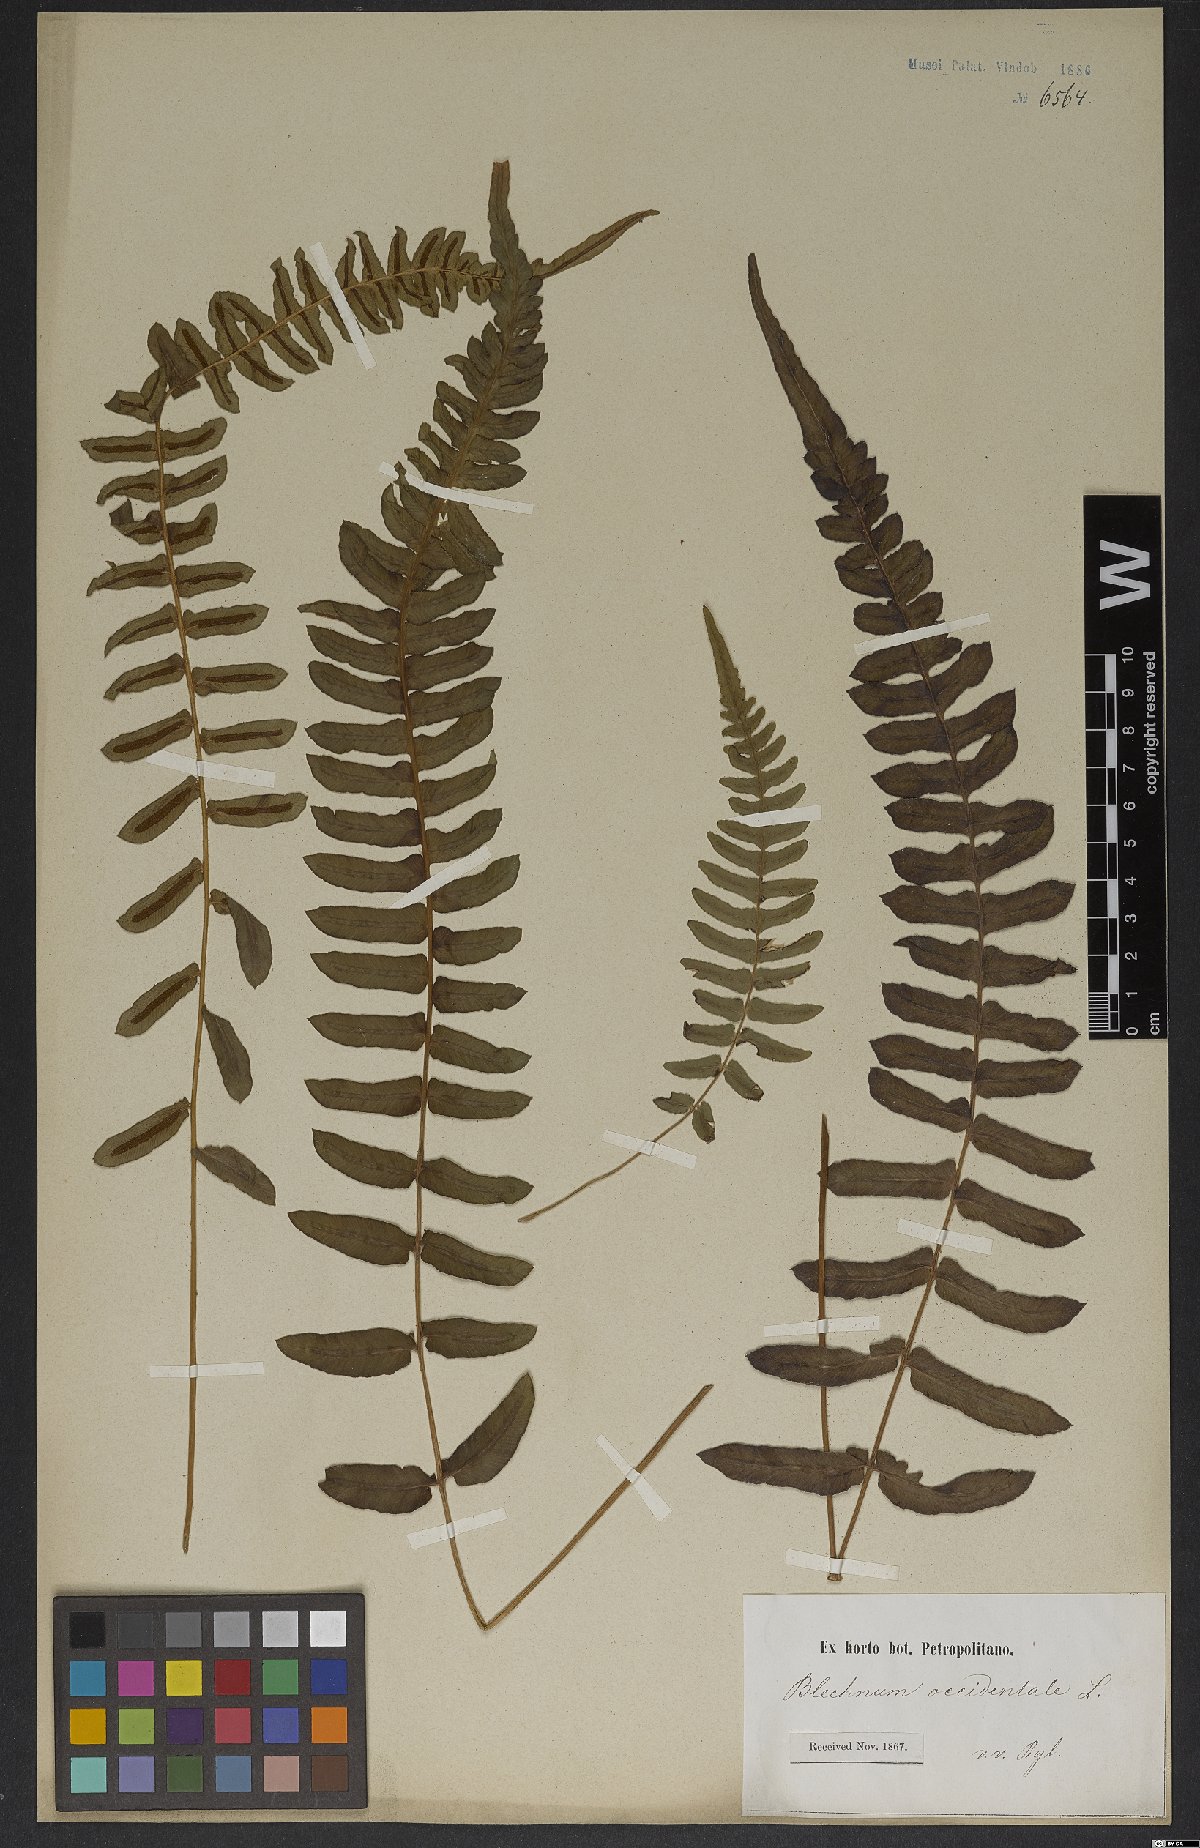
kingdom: Plantae
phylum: Tracheophyta
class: Polypodiopsida
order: Polypodiales
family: Blechnaceae
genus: Blechnum
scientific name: Blechnum occidentale
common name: Hammock fern
